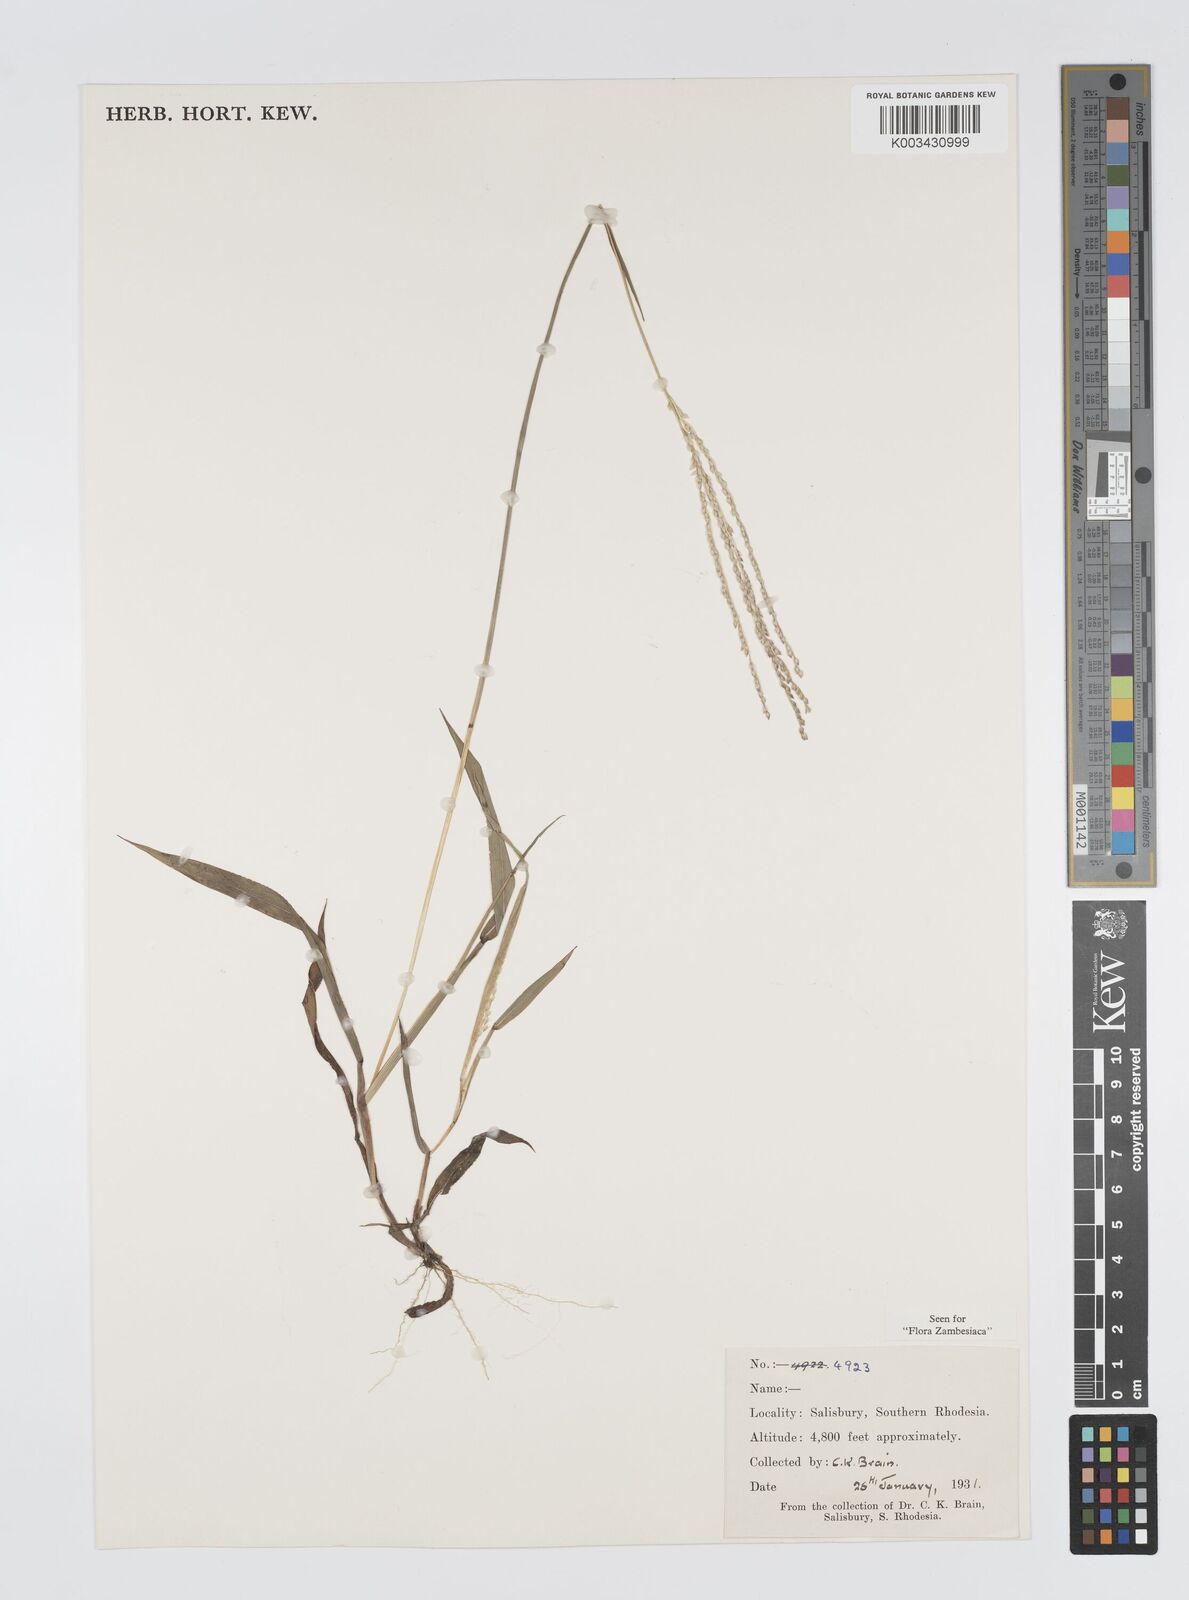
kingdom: Plantae
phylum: Tracheophyta
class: Liliopsida
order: Poales
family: Poaceae
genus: Digitaria
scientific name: Digitaria angolensis
